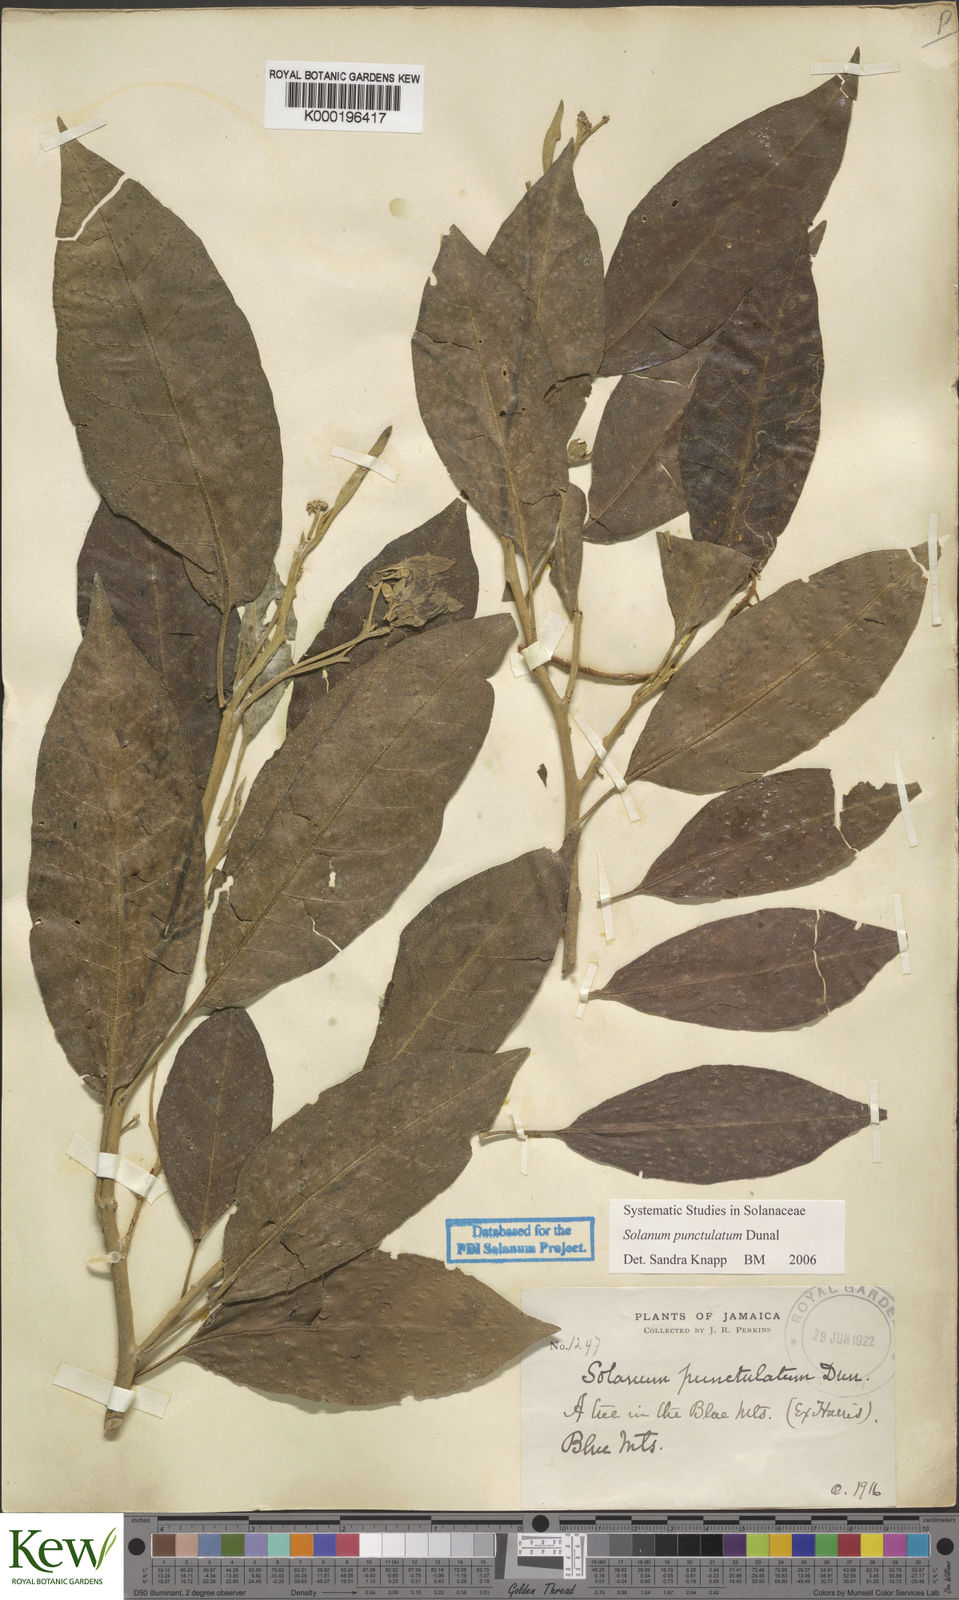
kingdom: Plantae
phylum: Tracheophyta
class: Magnoliopsida
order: Solanales
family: Solanaceae
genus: Solanum
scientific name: Solanum punctulatum
